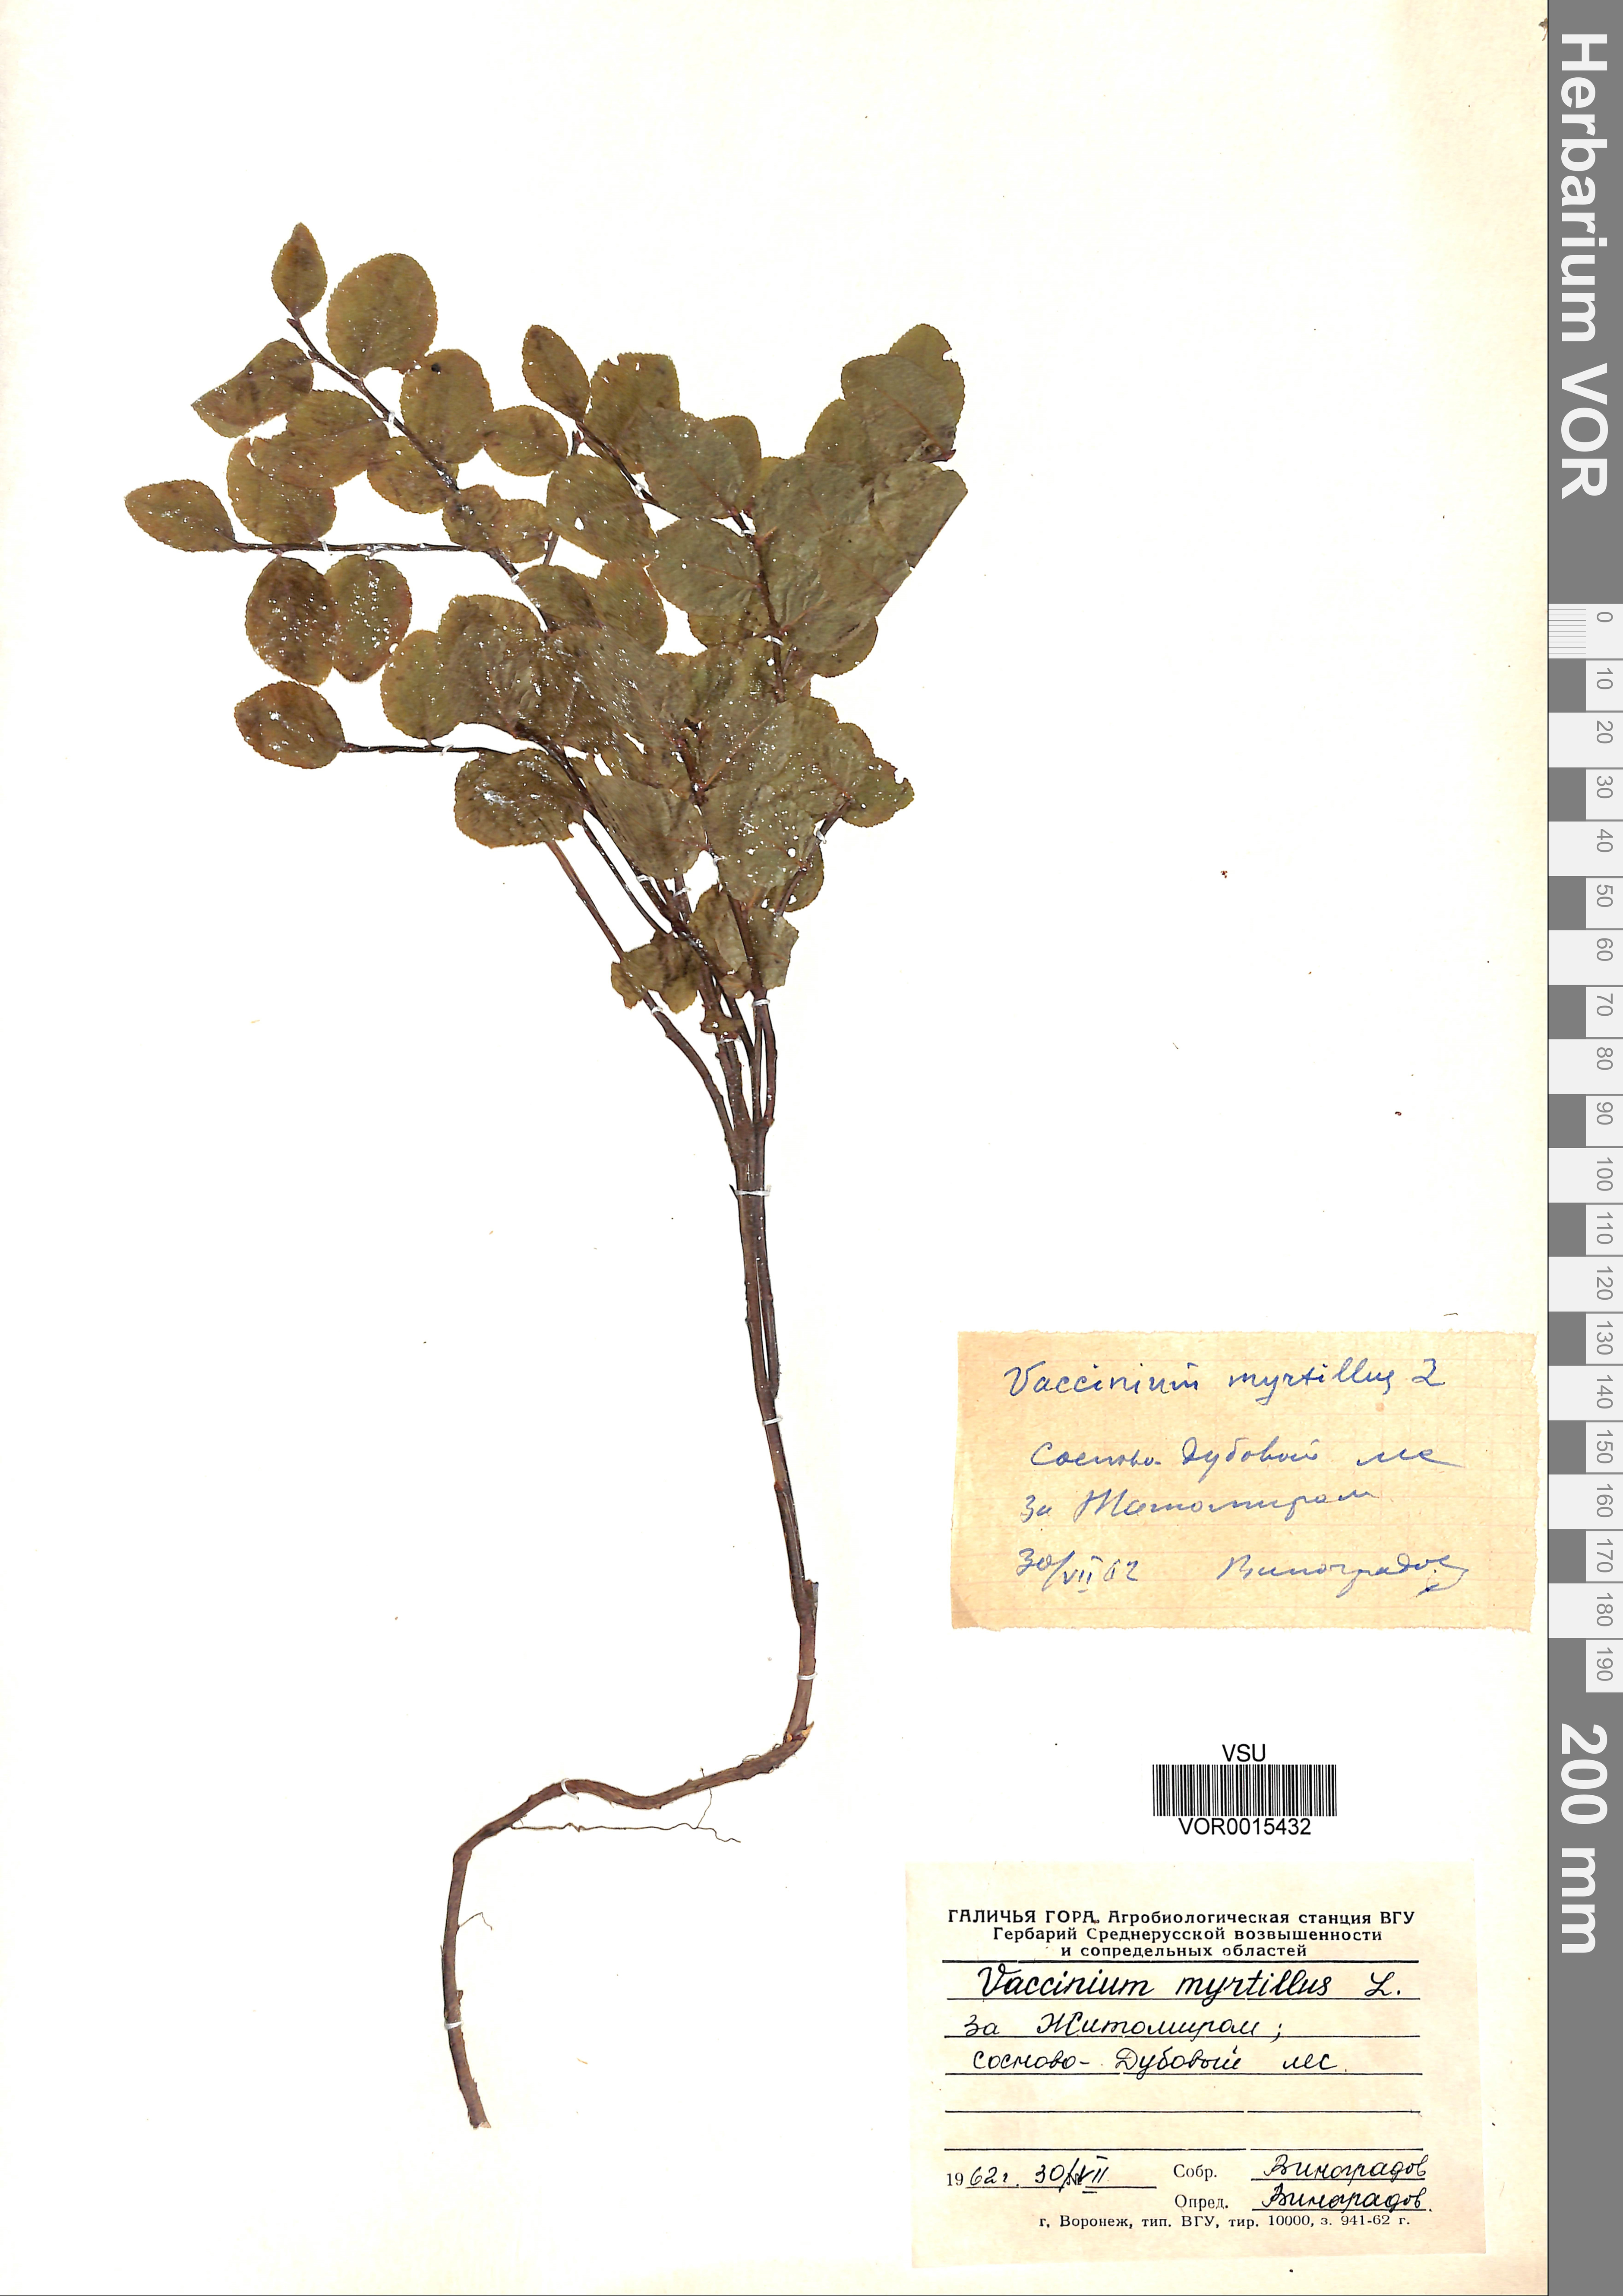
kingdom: Plantae
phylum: Tracheophyta
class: Magnoliopsida
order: Ericales
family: Ericaceae
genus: Vaccinium
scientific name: Vaccinium myrtillus
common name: Bilberry
